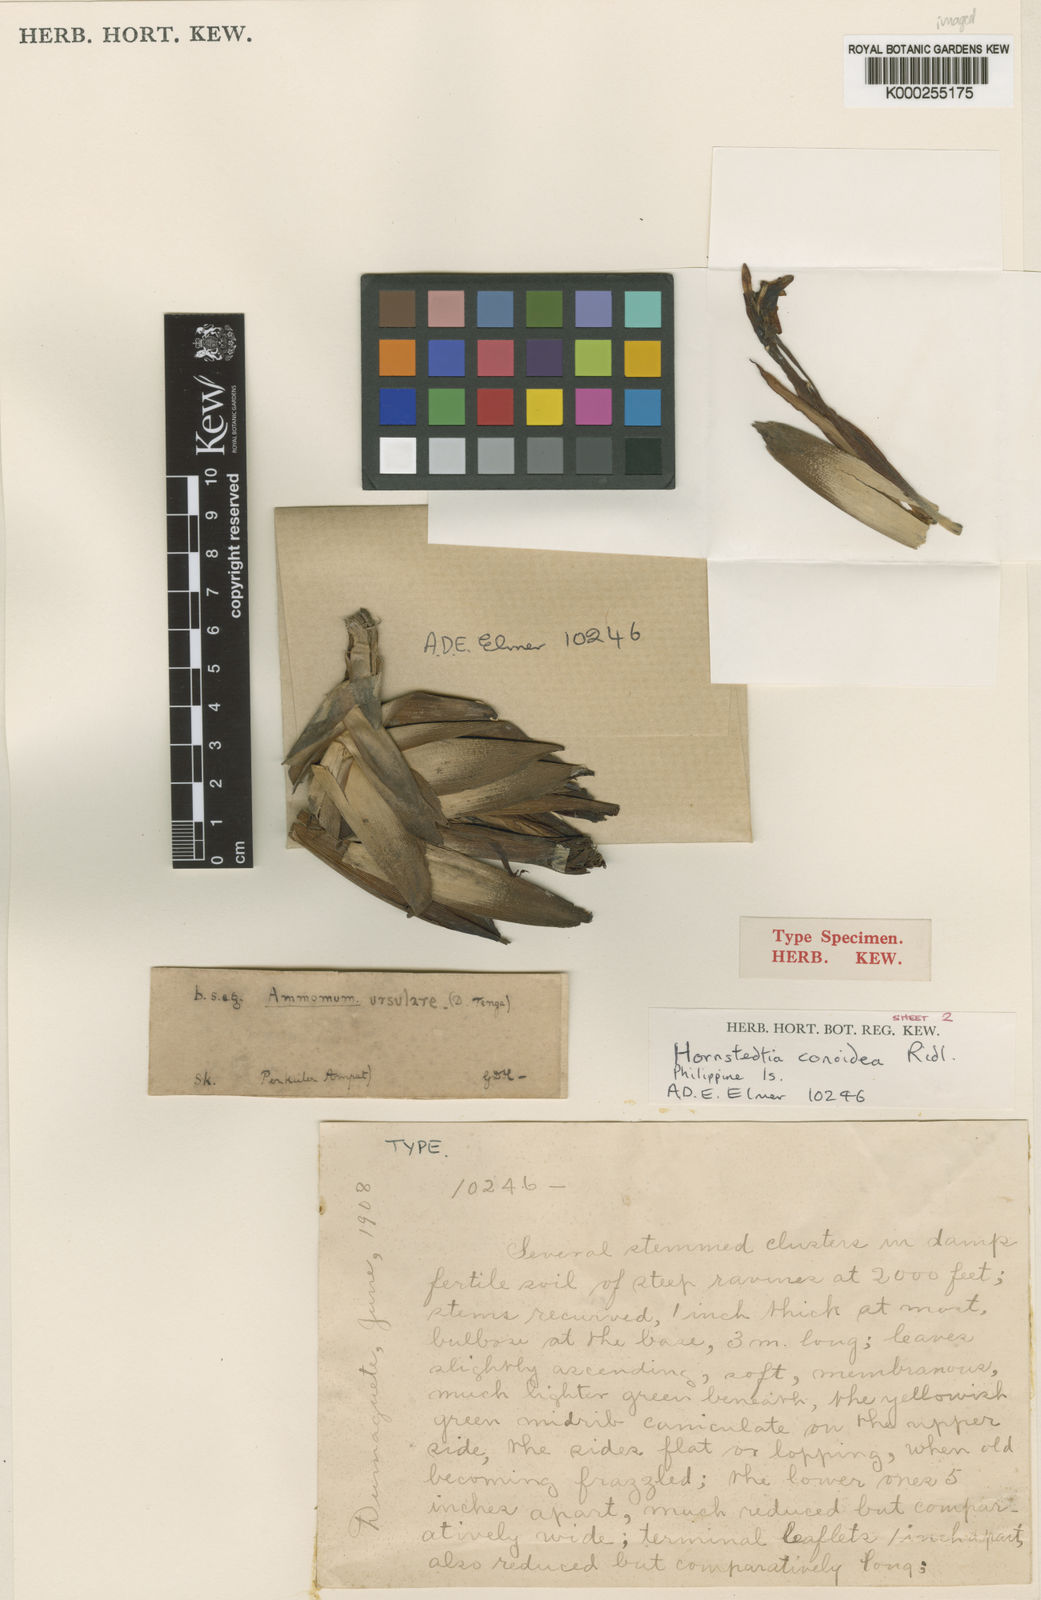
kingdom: Plantae
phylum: Tracheophyta
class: Liliopsida
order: Zingiberales
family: Zingiberaceae
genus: Hornstedtia
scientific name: Hornstedtia conoidea
